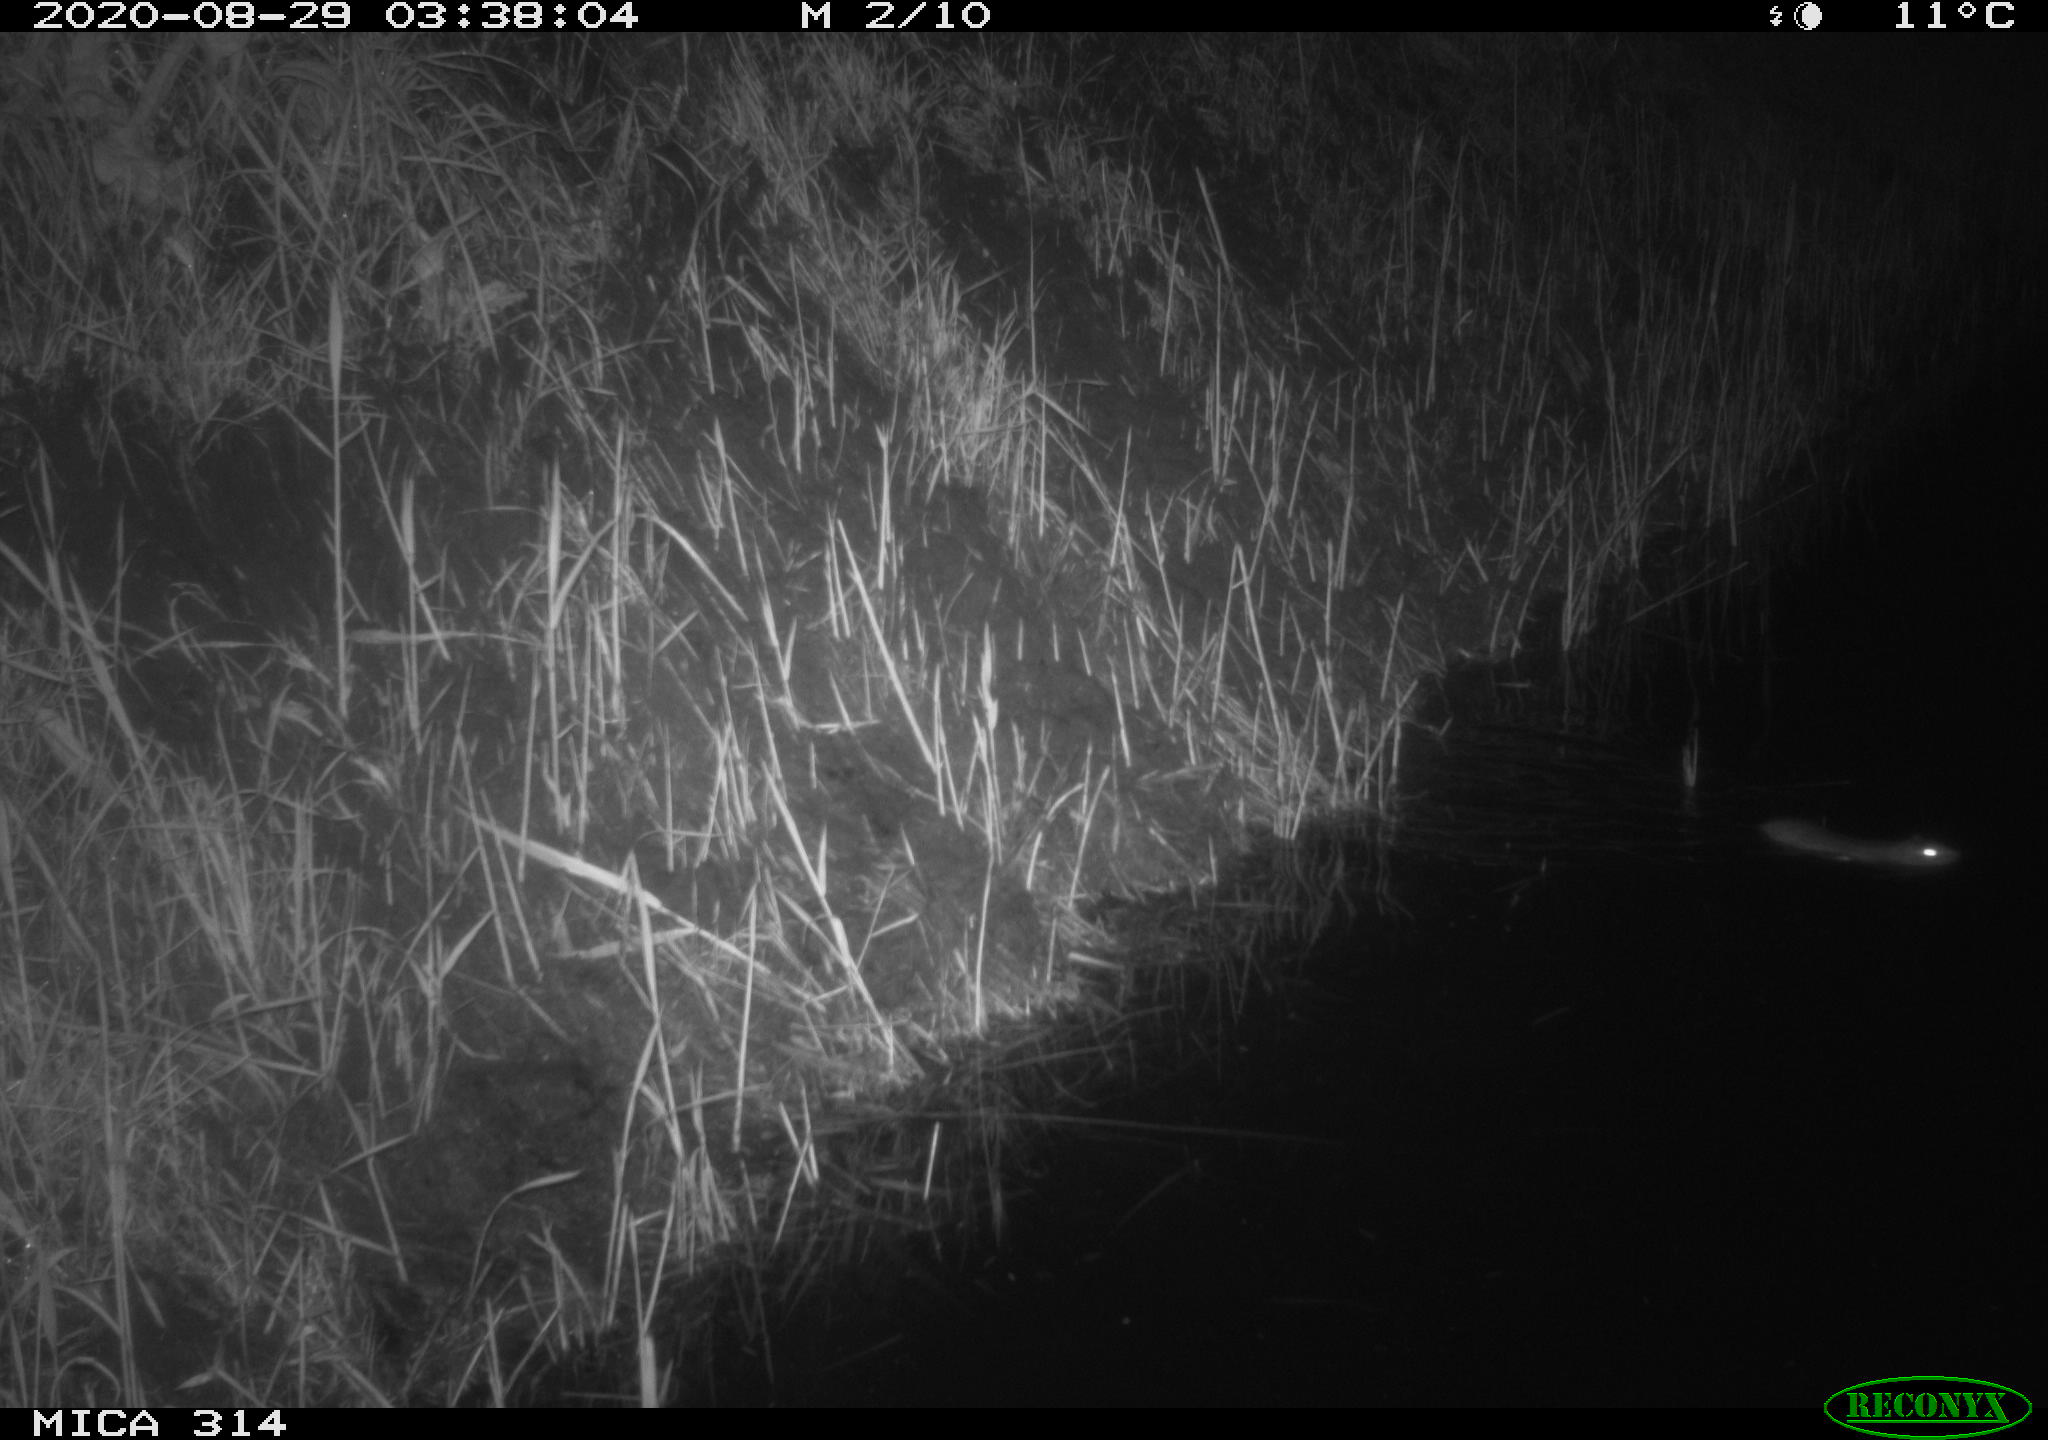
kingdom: Animalia
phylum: Chordata
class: Mammalia
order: Rodentia
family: Muridae
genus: Rattus
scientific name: Rattus norvegicus
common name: Brown rat
